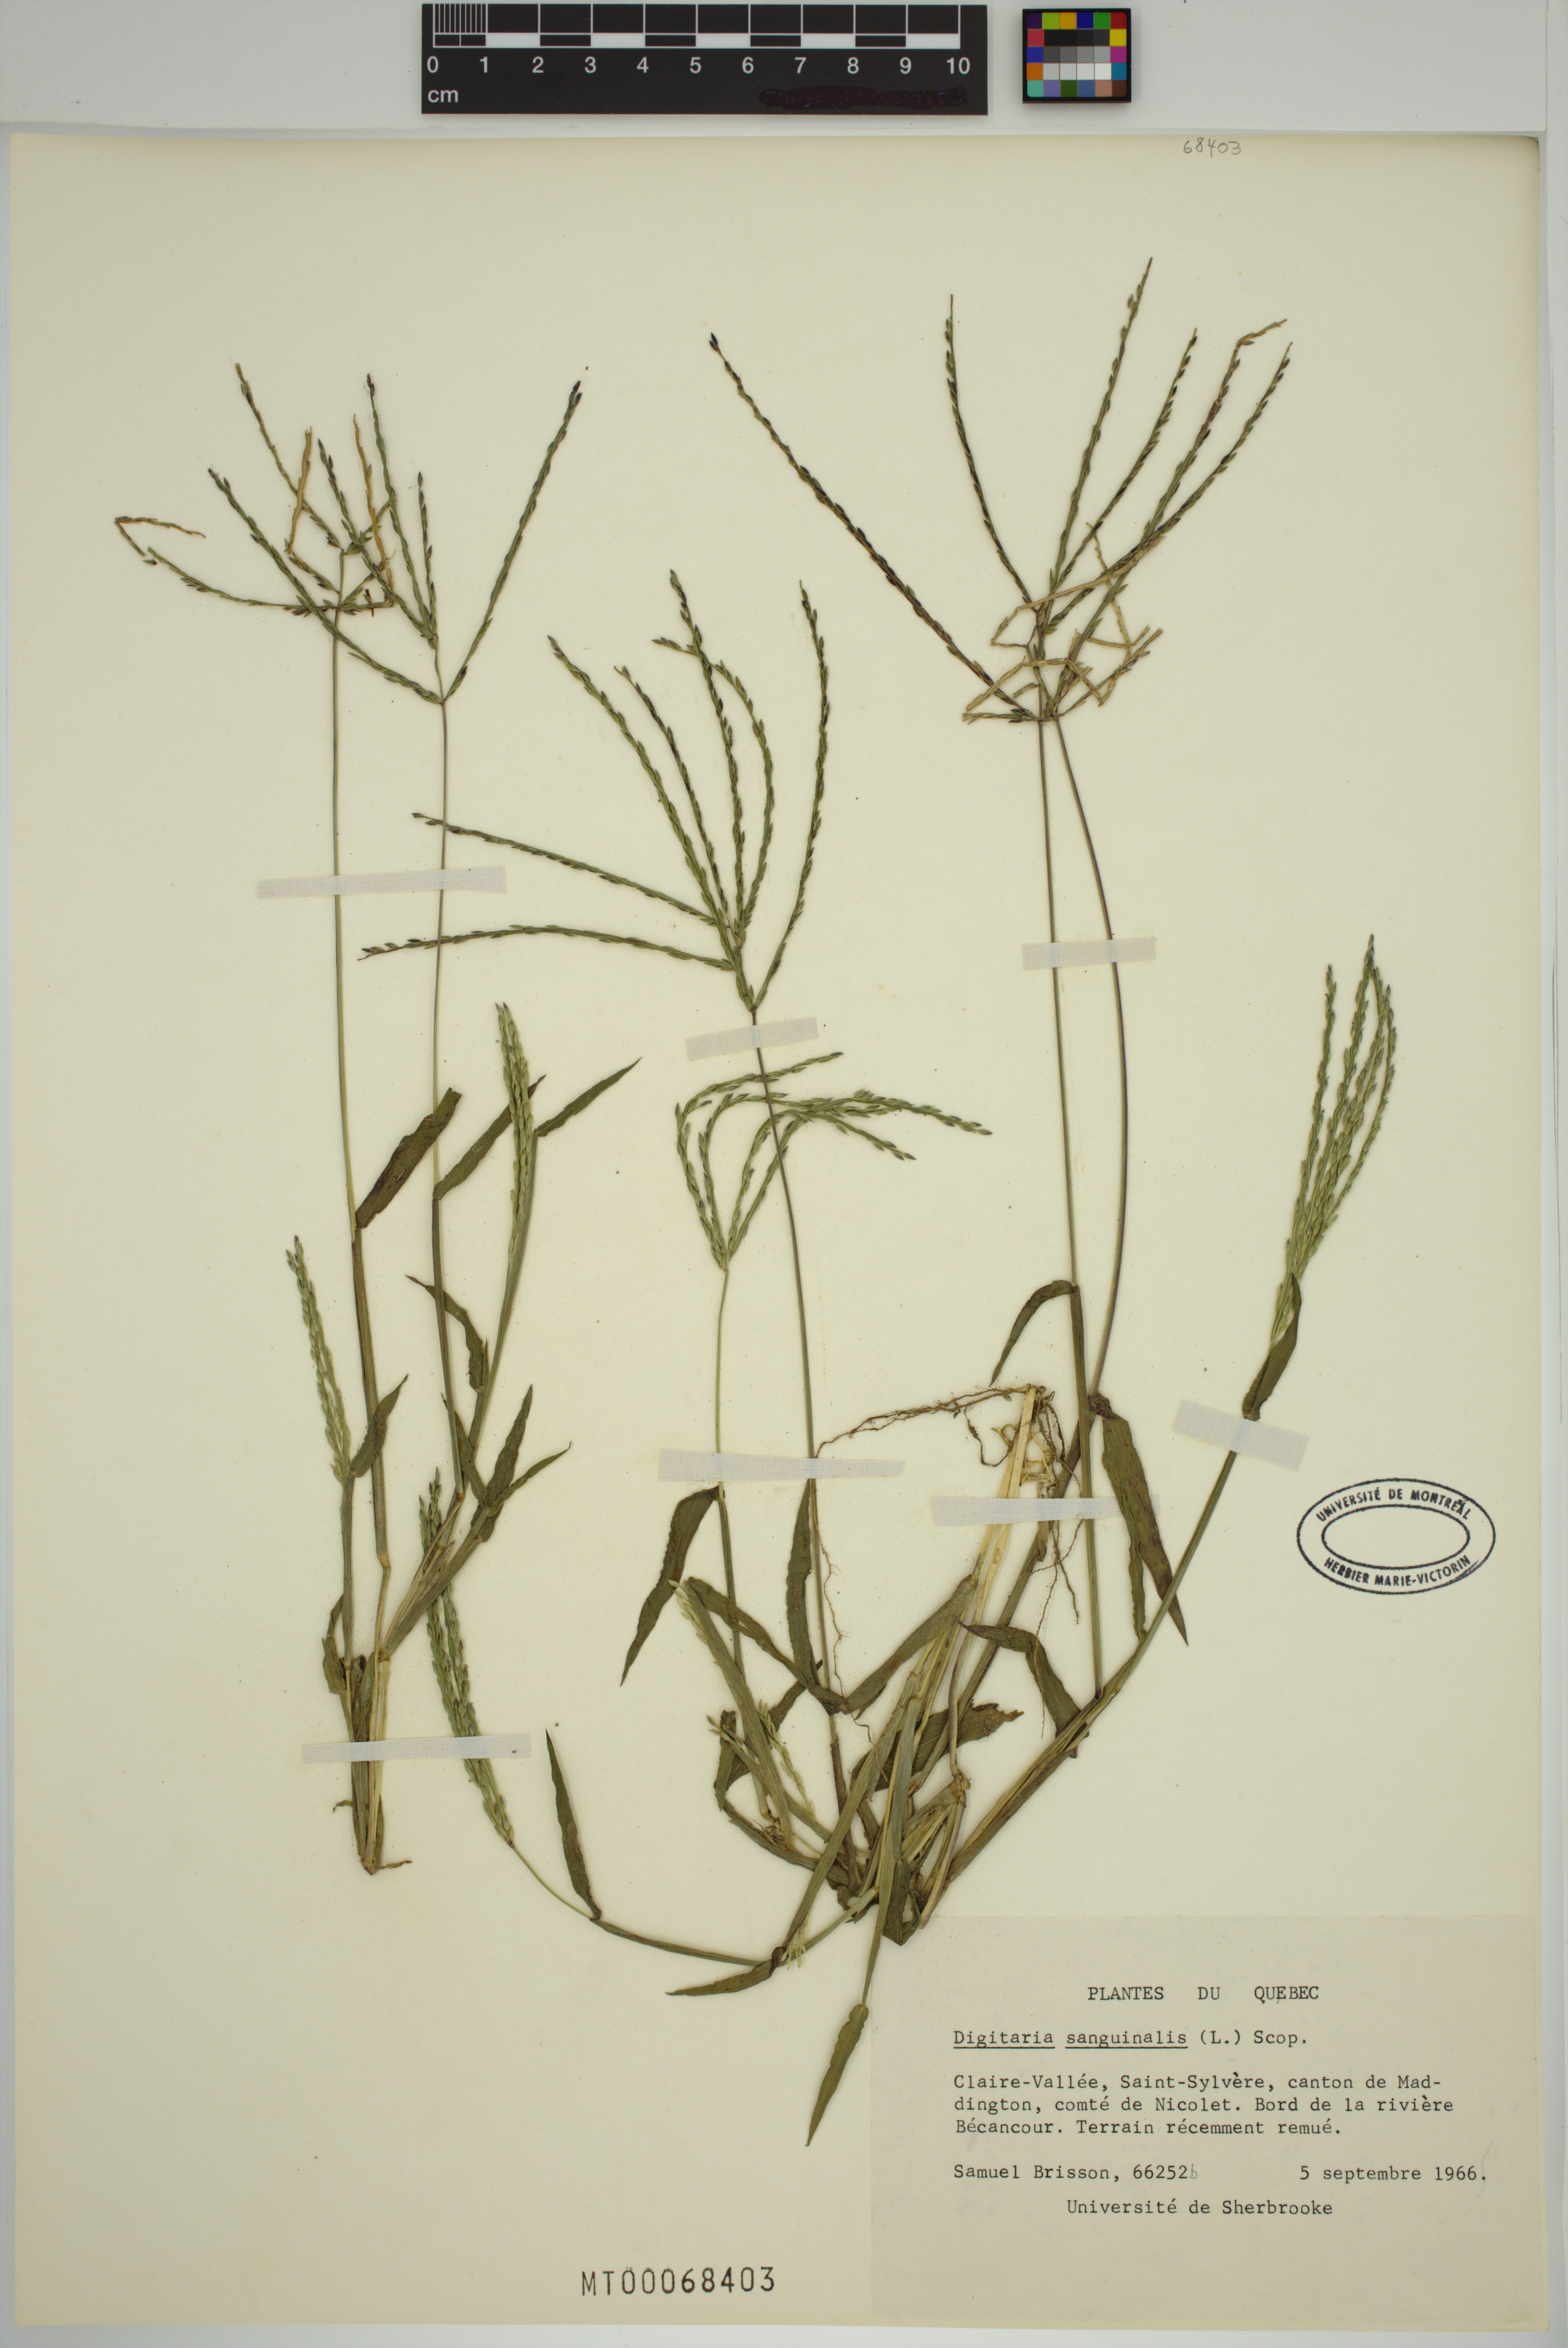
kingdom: Plantae
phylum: Tracheophyta
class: Liliopsida
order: Poales
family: Poaceae
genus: Digitaria
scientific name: Digitaria sanguinalis
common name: Hairy crabgrass
